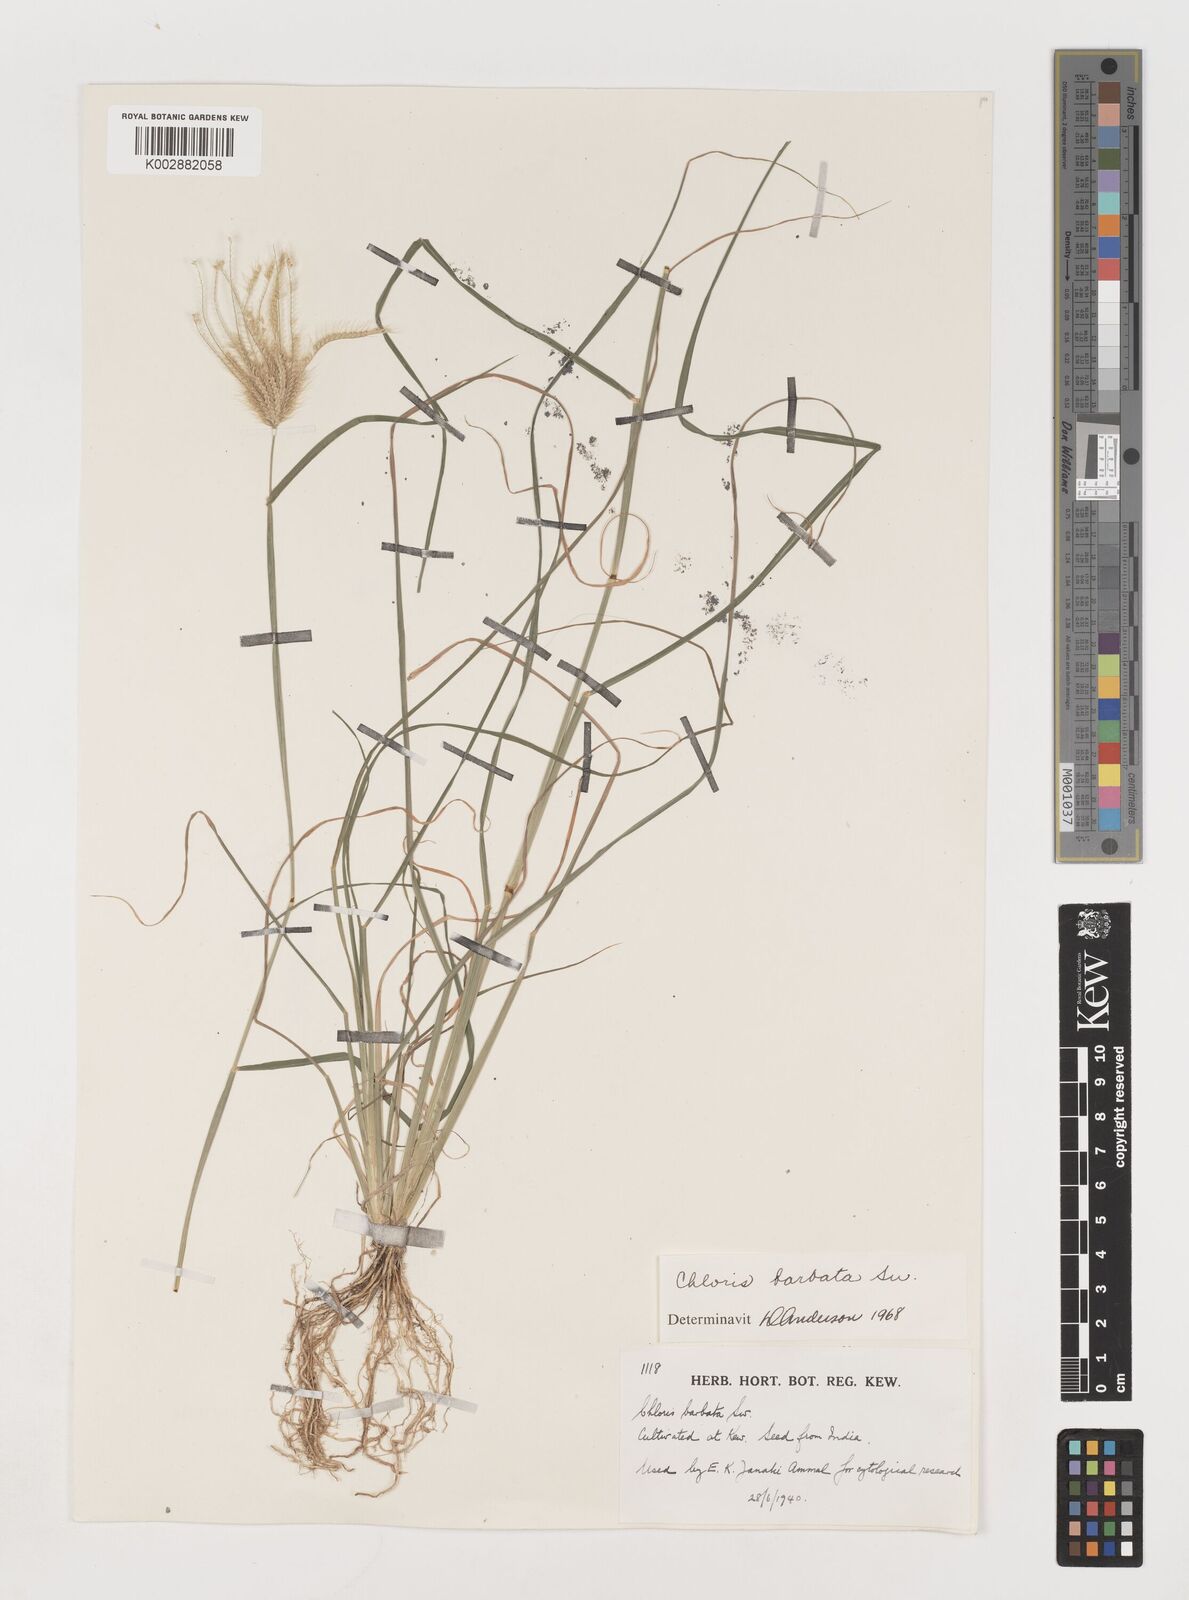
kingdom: Plantae
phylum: Tracheophyta
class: Liliopsida
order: Poales
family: Poaceae
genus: Chloris
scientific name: Chloris barbata
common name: Swollen fingergrass
